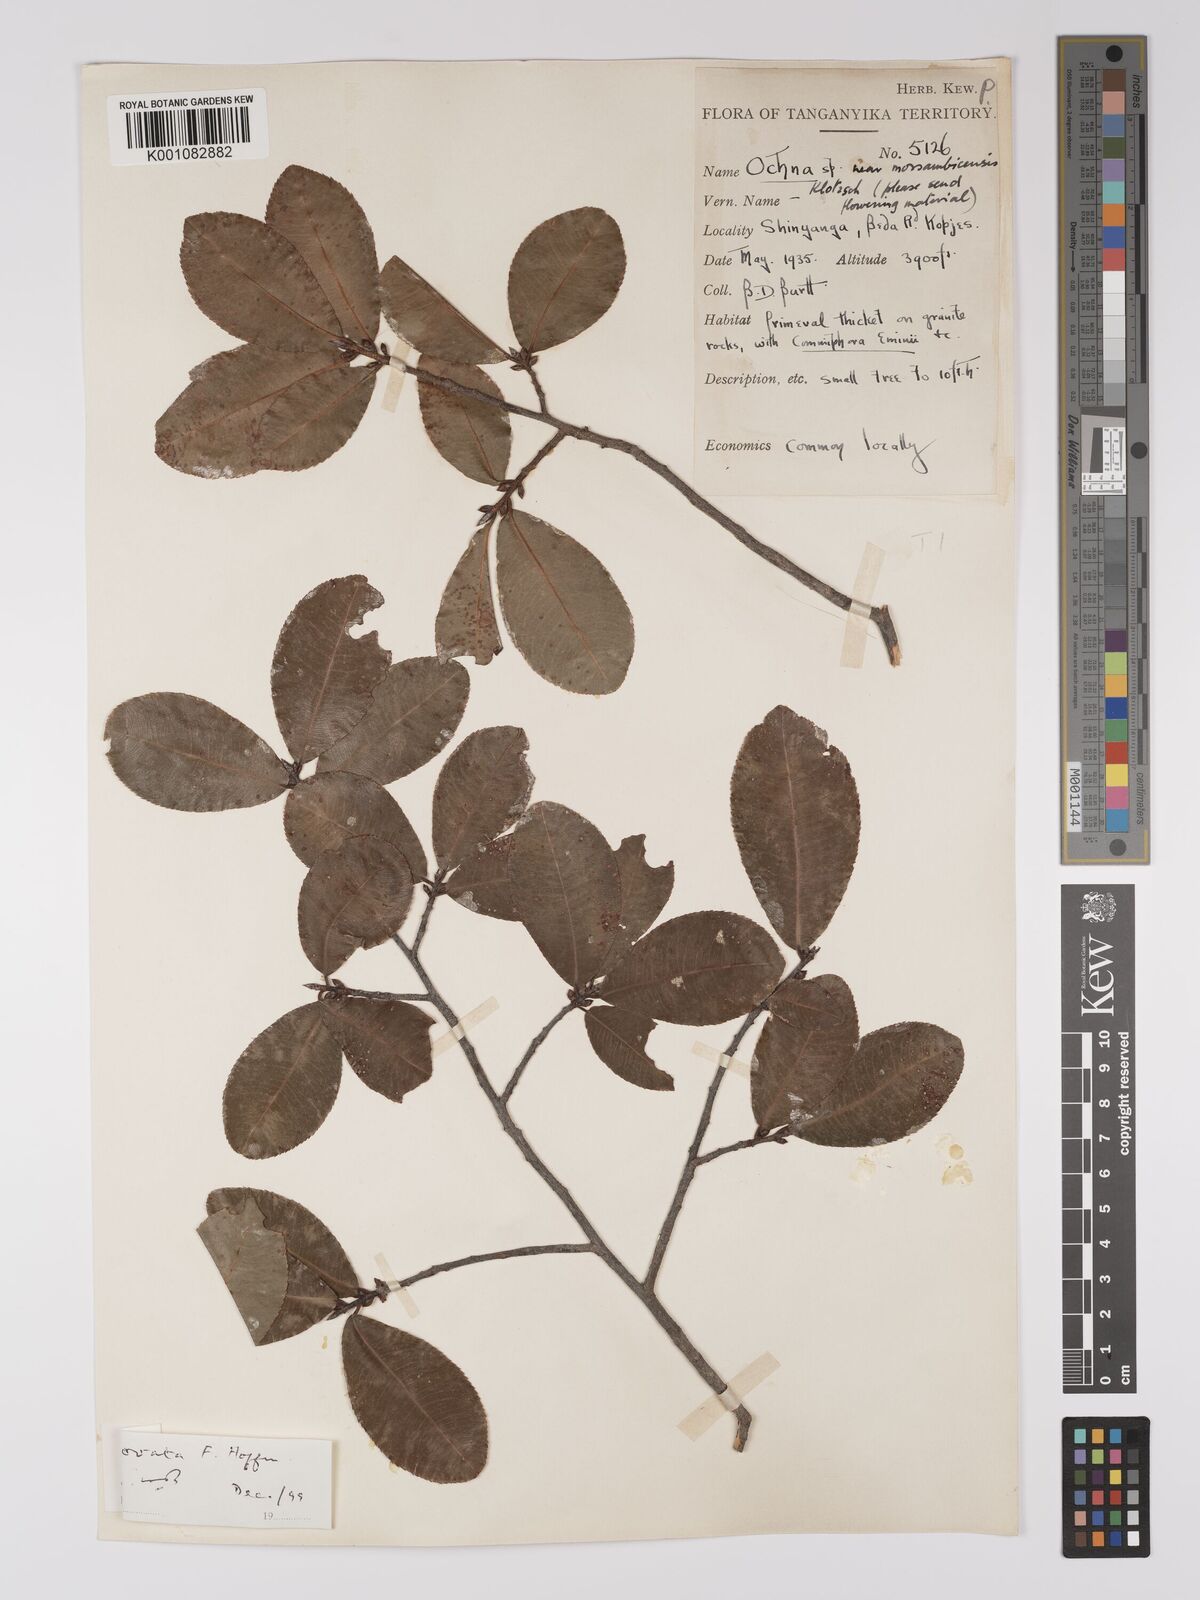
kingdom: Plantae
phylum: Tracheophyta
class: Magnoliopsida
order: Malpighiales
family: Ochnaceae
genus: Ochna
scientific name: Ochna ovata
